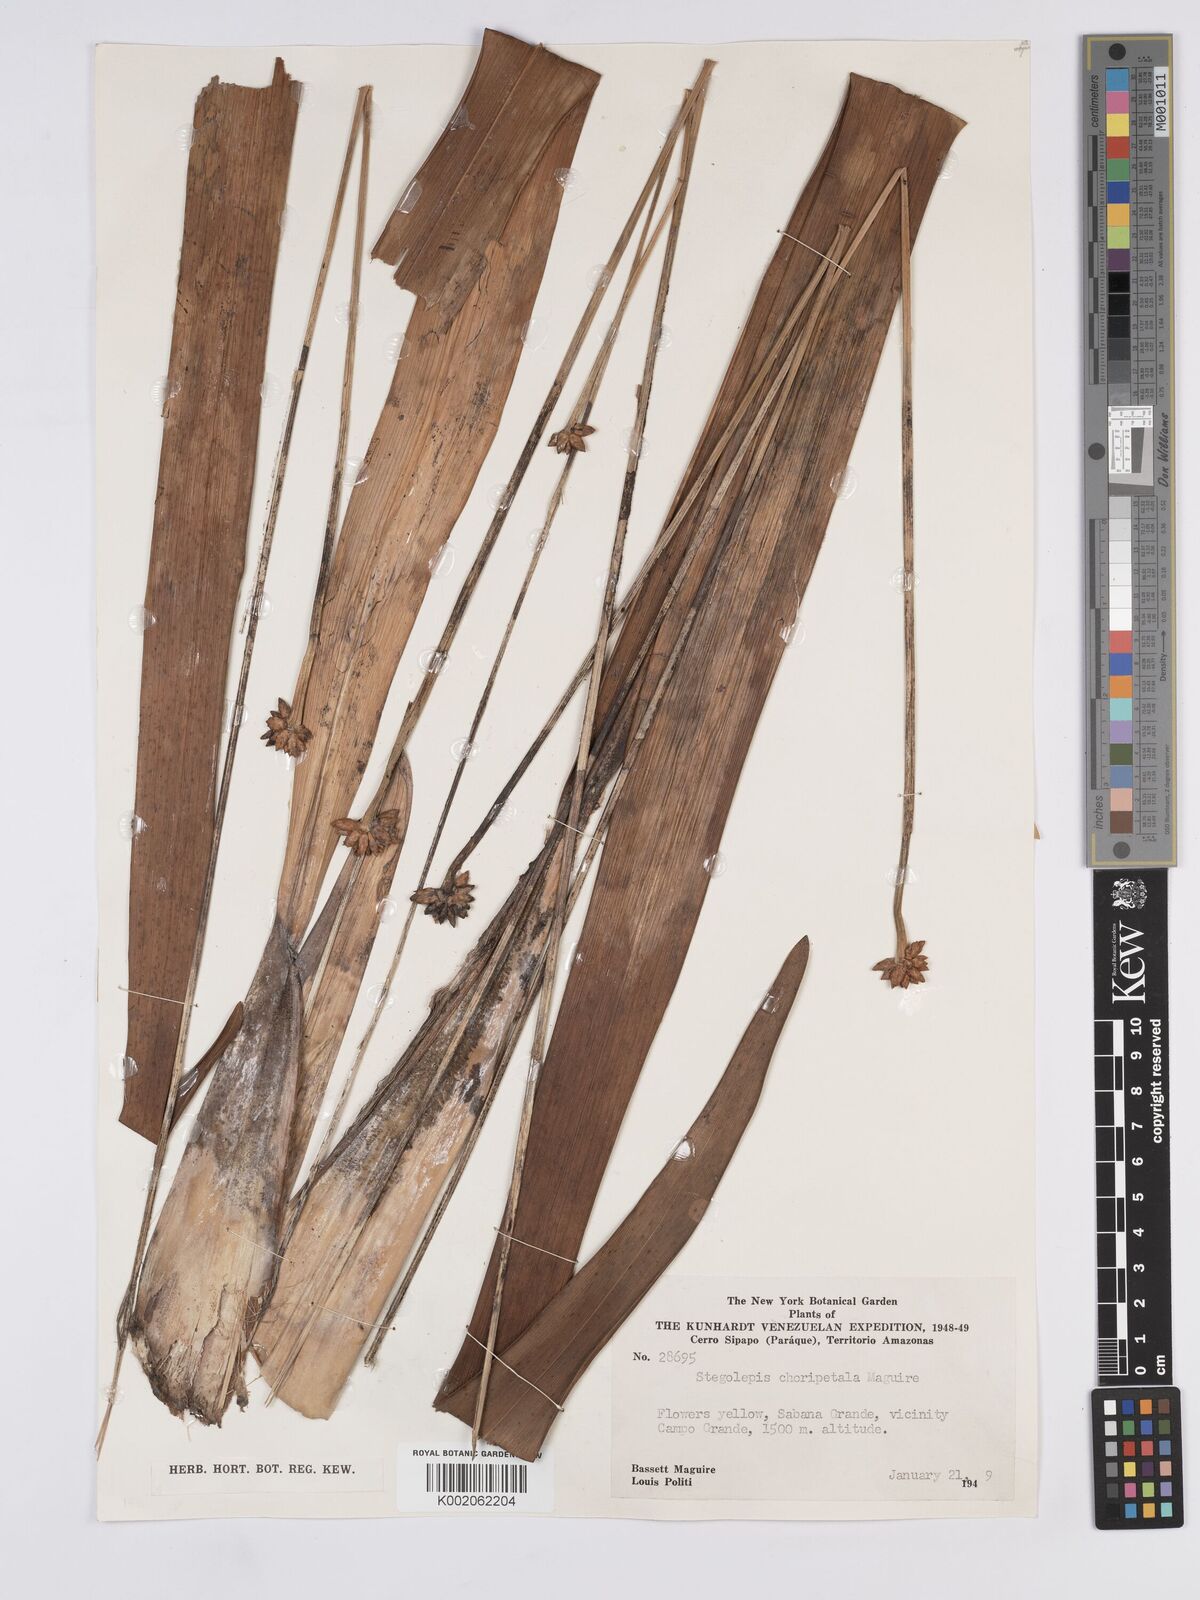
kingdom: Plantae
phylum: Tracheophyta
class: Liliopsida
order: Poales
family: Rapateaceae
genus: Stegolepis
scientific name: Stegolepis choripetala
